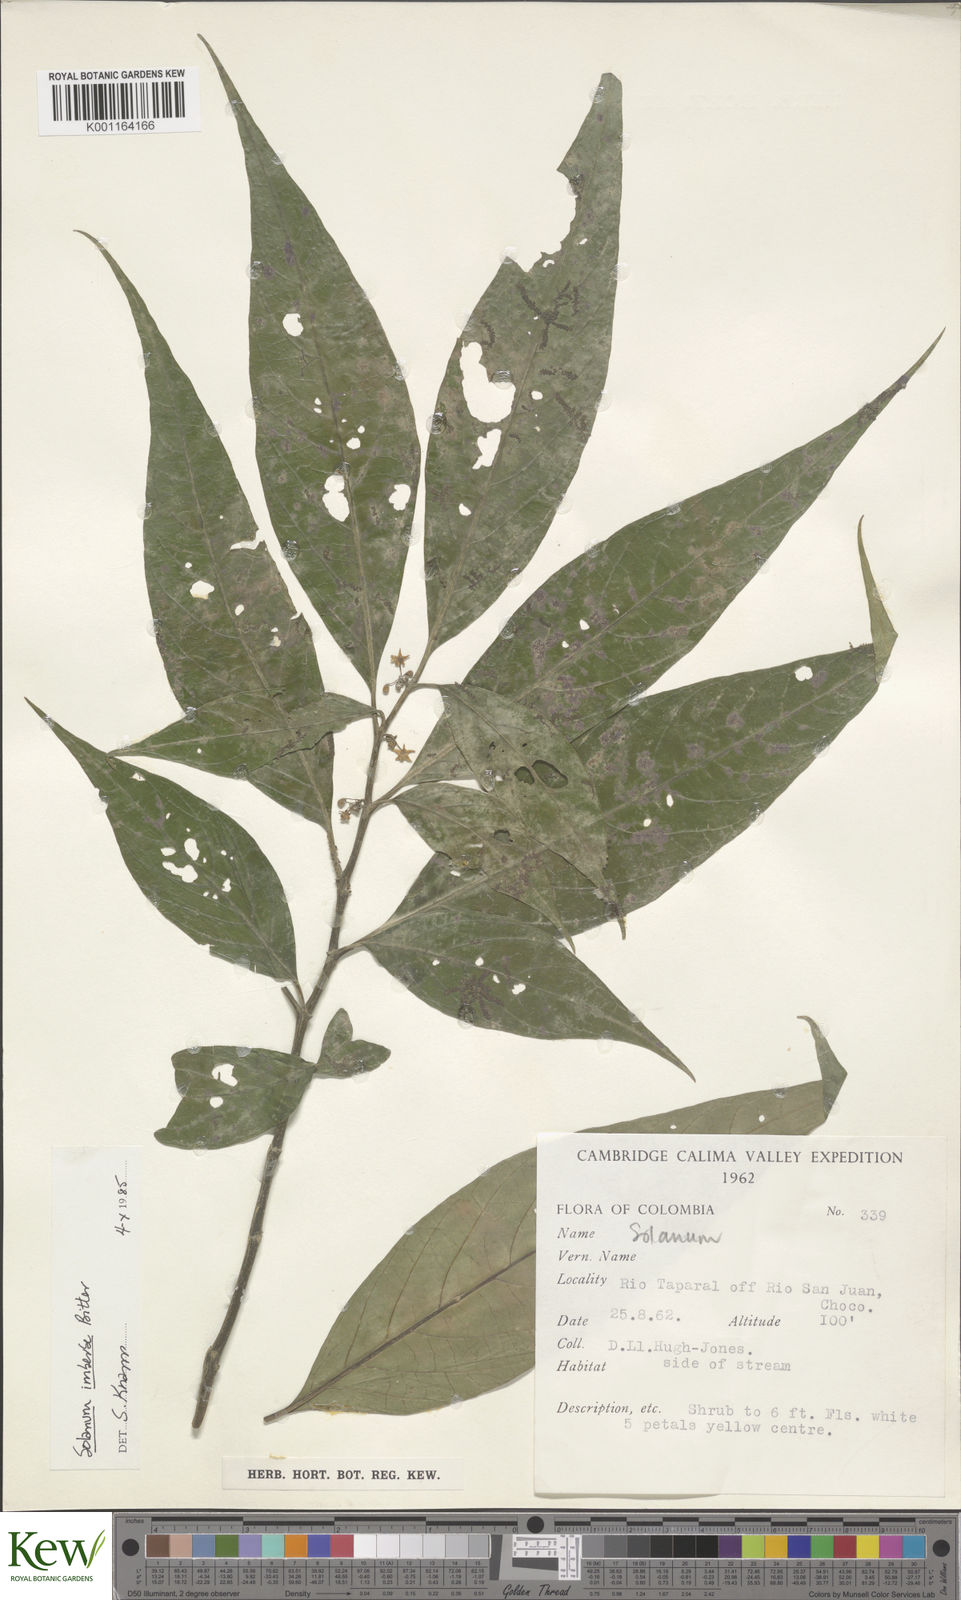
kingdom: Plantae
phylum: Tracheophyta
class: Magnoliopsida
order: Solanales
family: Solanaceae
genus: Solanum
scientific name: Solanum imberbe
